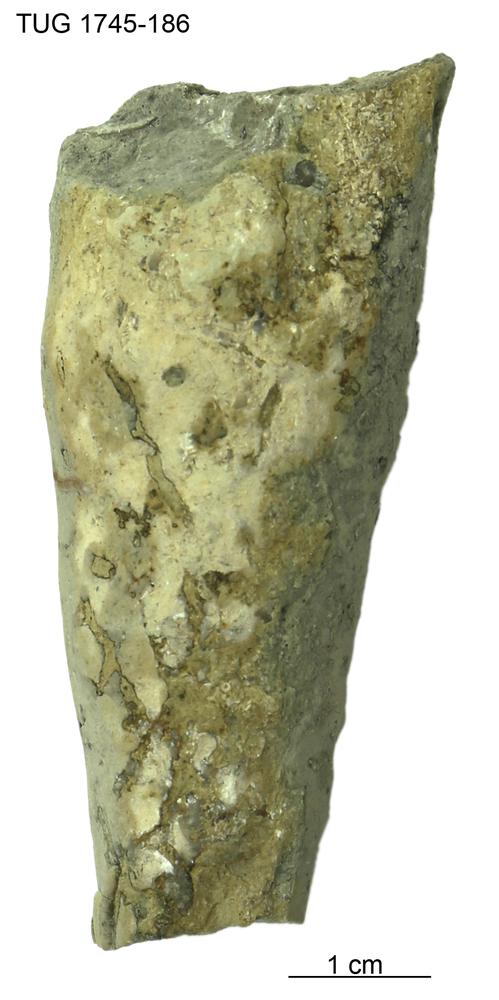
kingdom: Animalia
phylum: Mollusca
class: Cephalopoda
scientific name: Cephalopoda
